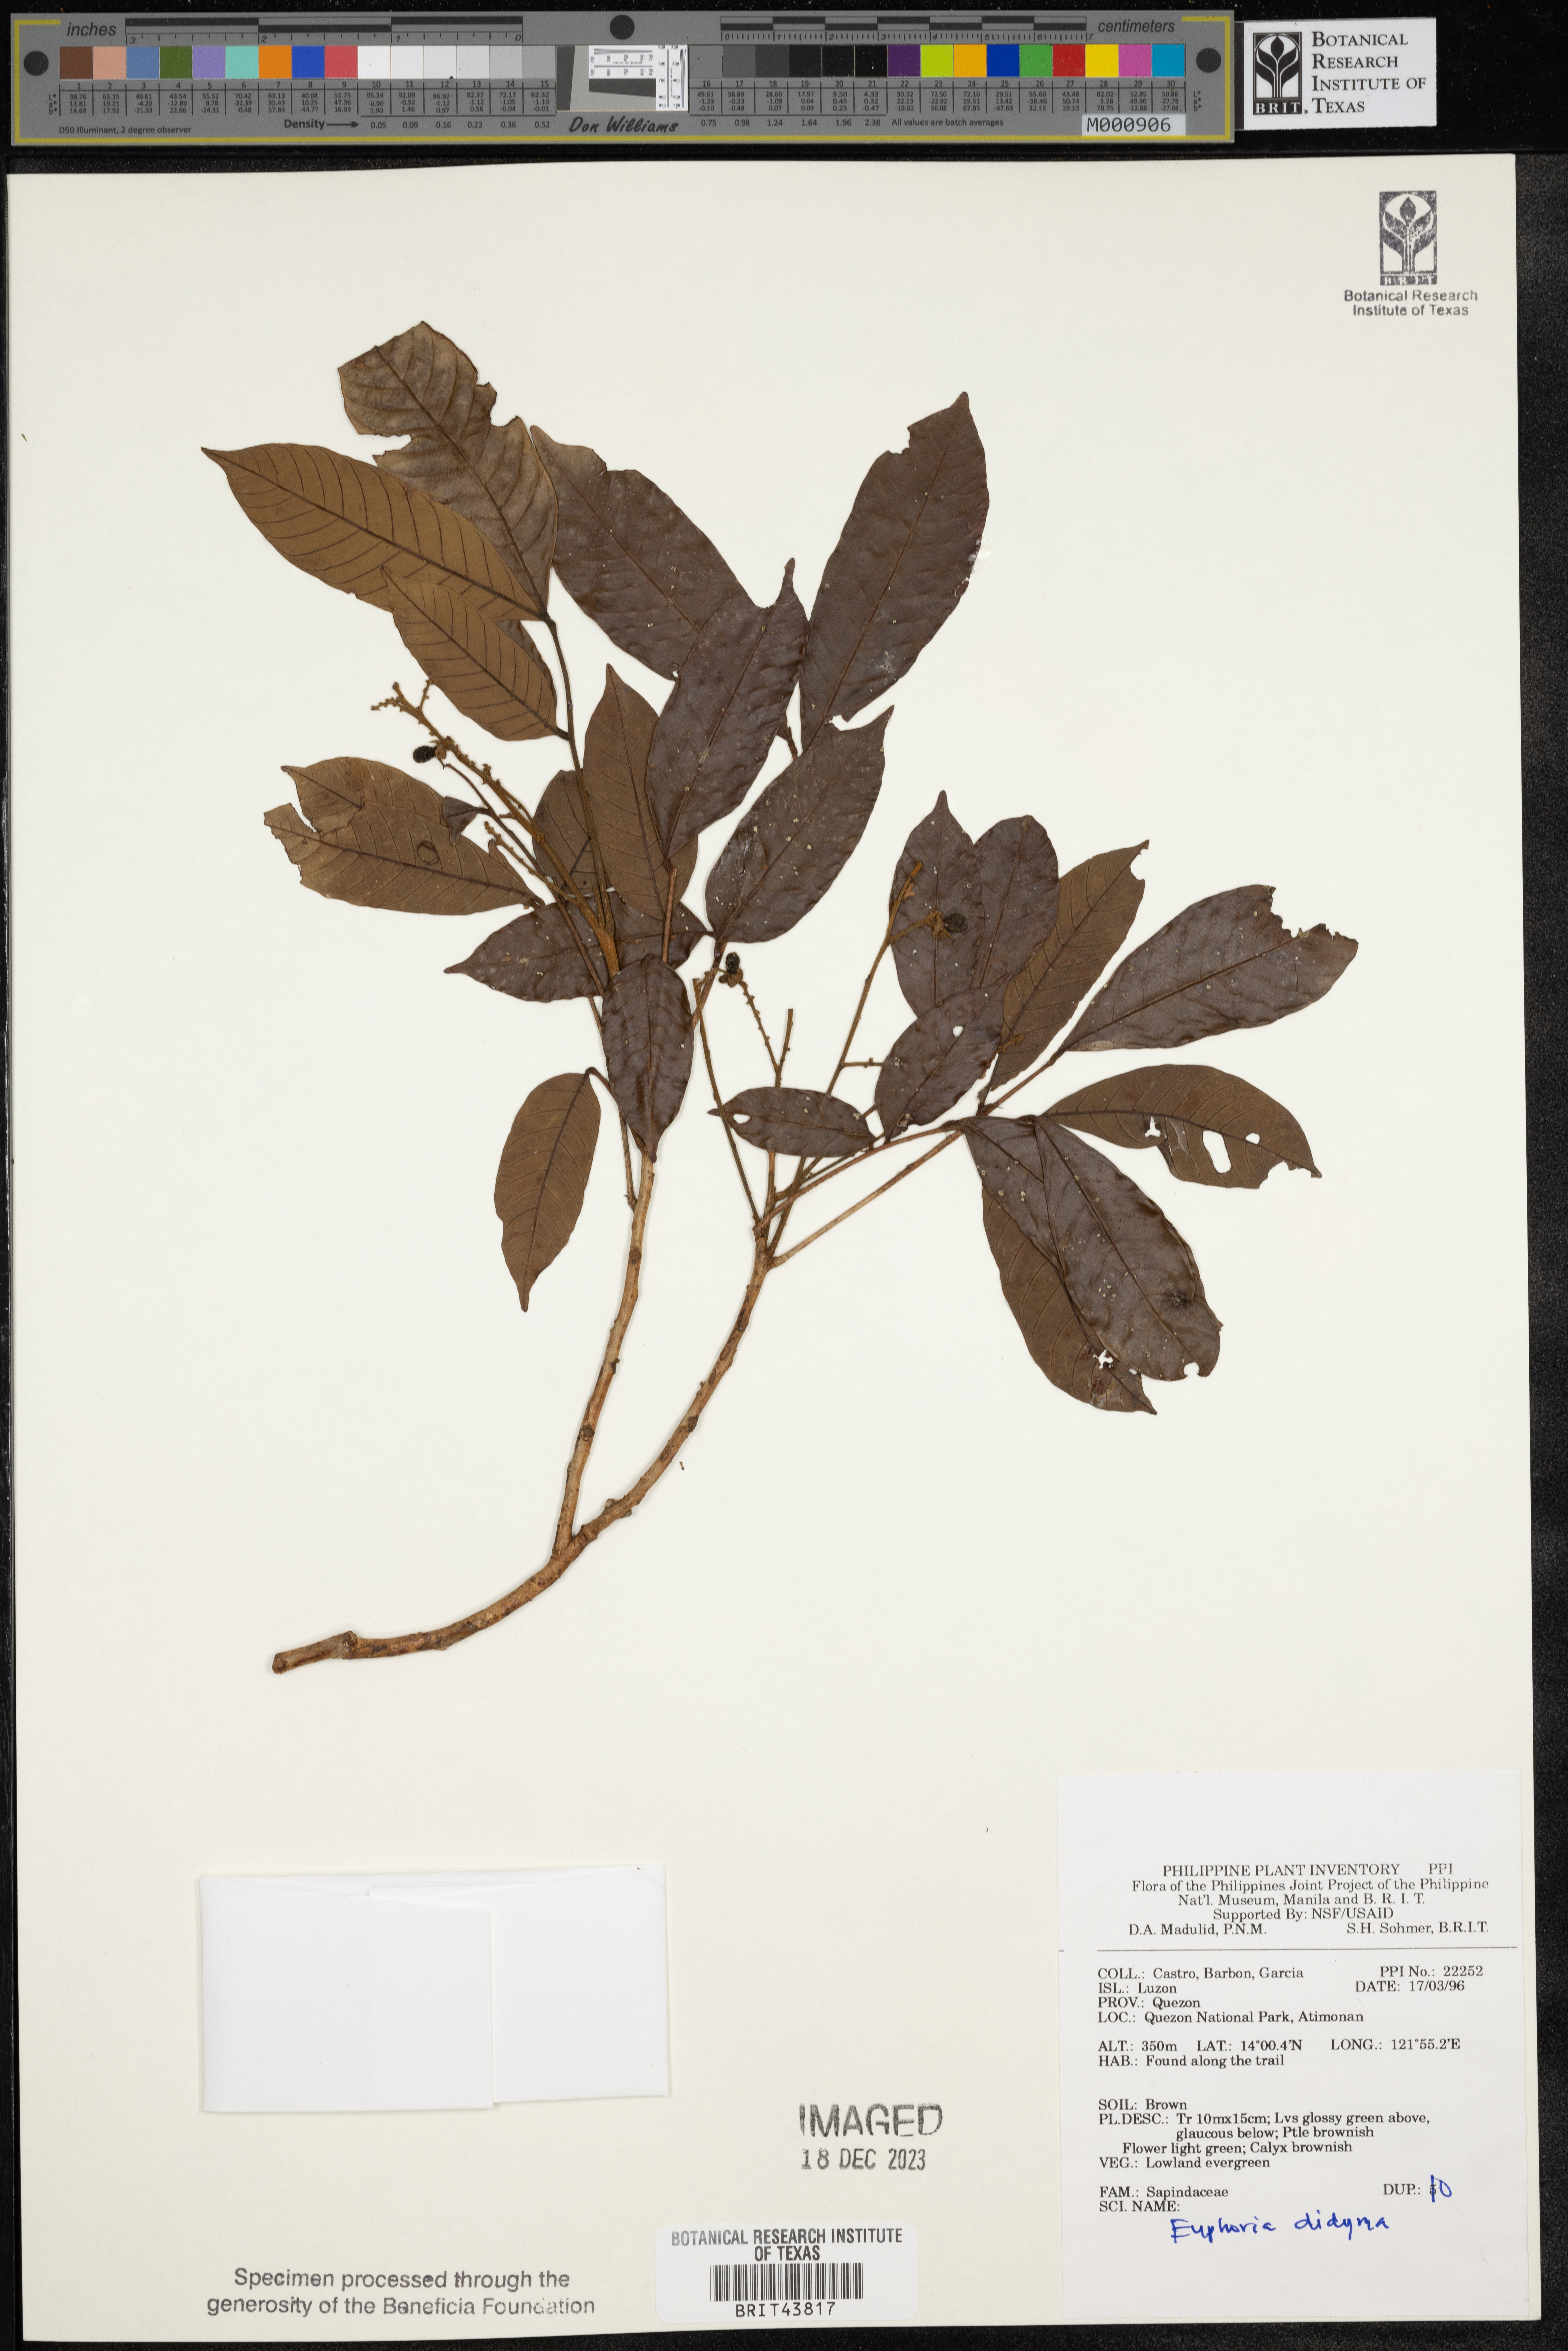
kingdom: Plantae
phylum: Tracheophyta
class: Magnoliopsida
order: Sapindales
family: Sapindaceae
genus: Litchi
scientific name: Litchi chinensis
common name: Litchi
